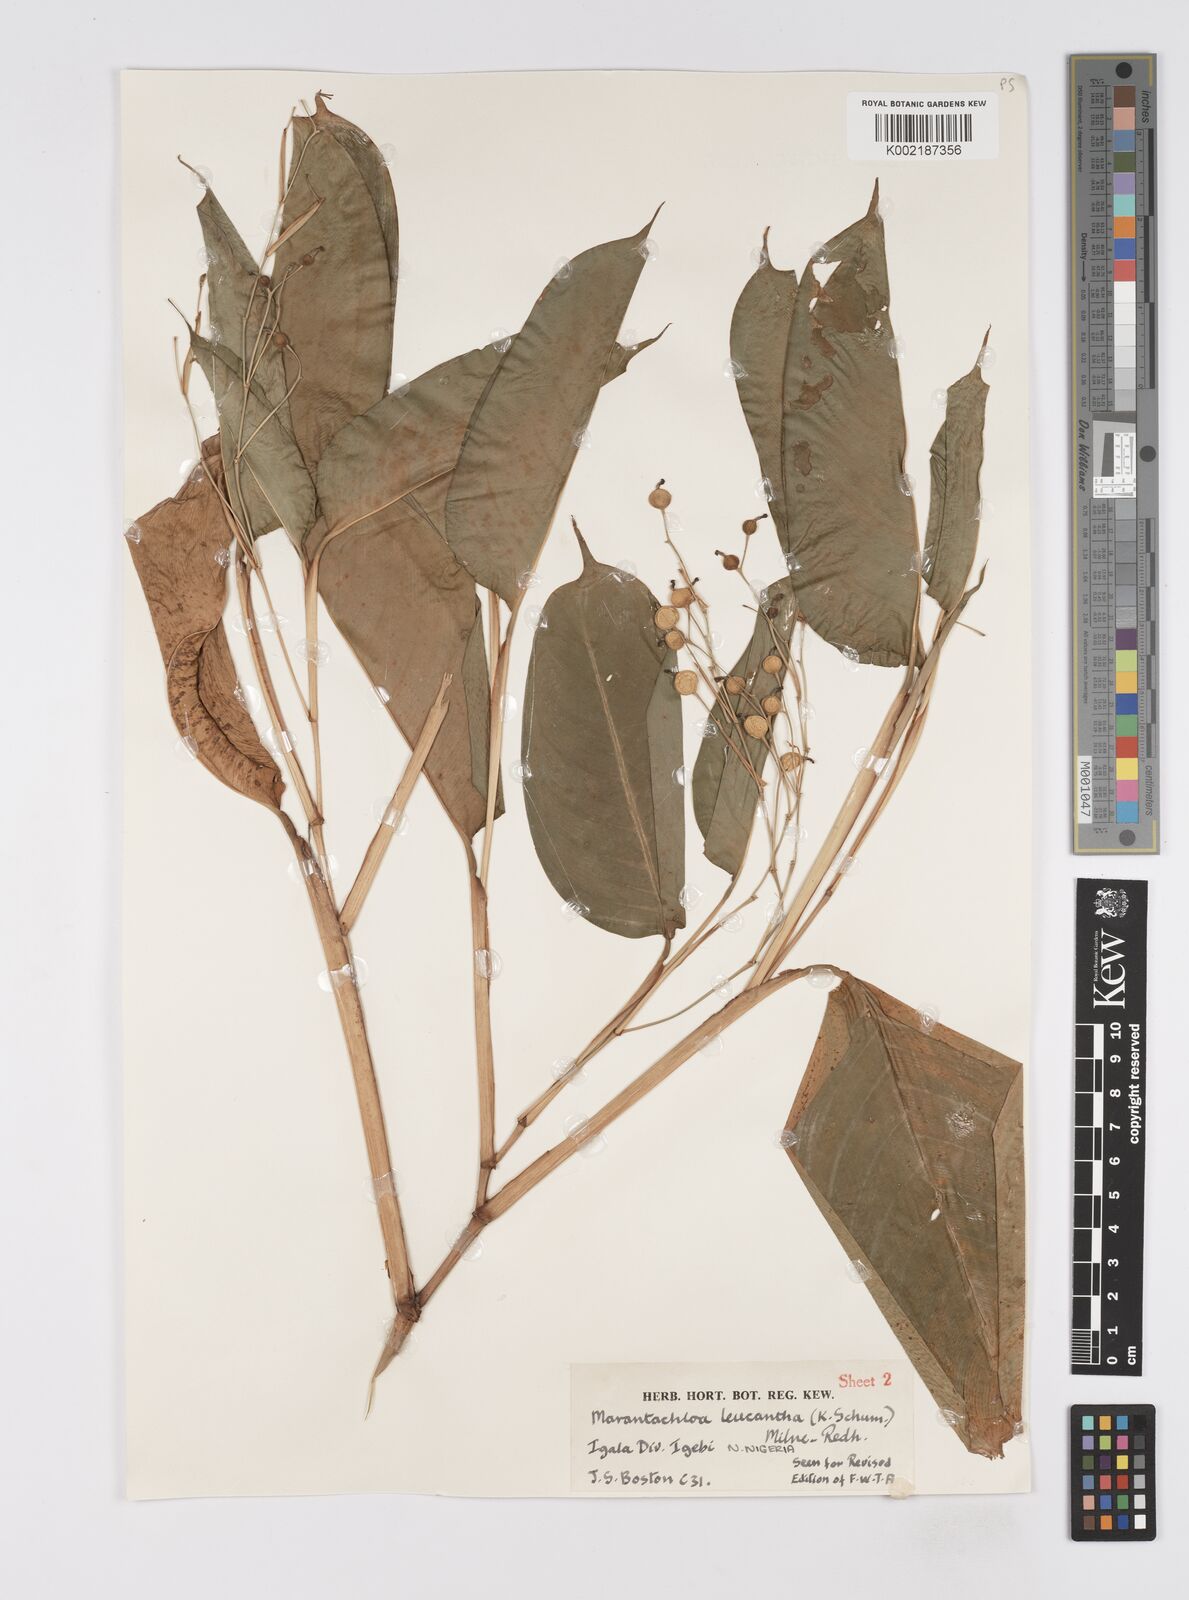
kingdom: Plantae
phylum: Tracheophyta
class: Liliopsida
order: Zingiberales
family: Marantaceae
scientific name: Marantaceae
